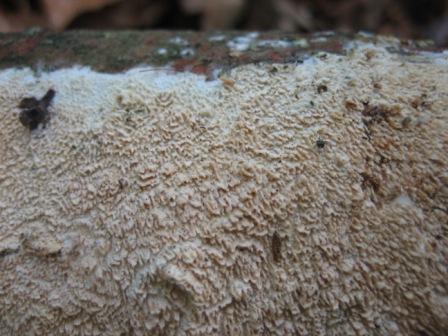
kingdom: Fungi
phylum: Basidiomycota
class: Agaricomycetes
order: Hymenochaetales
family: Schizoporaceae
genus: Schizopora
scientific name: Schizopora paradoxa
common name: hvid tandsvamp
